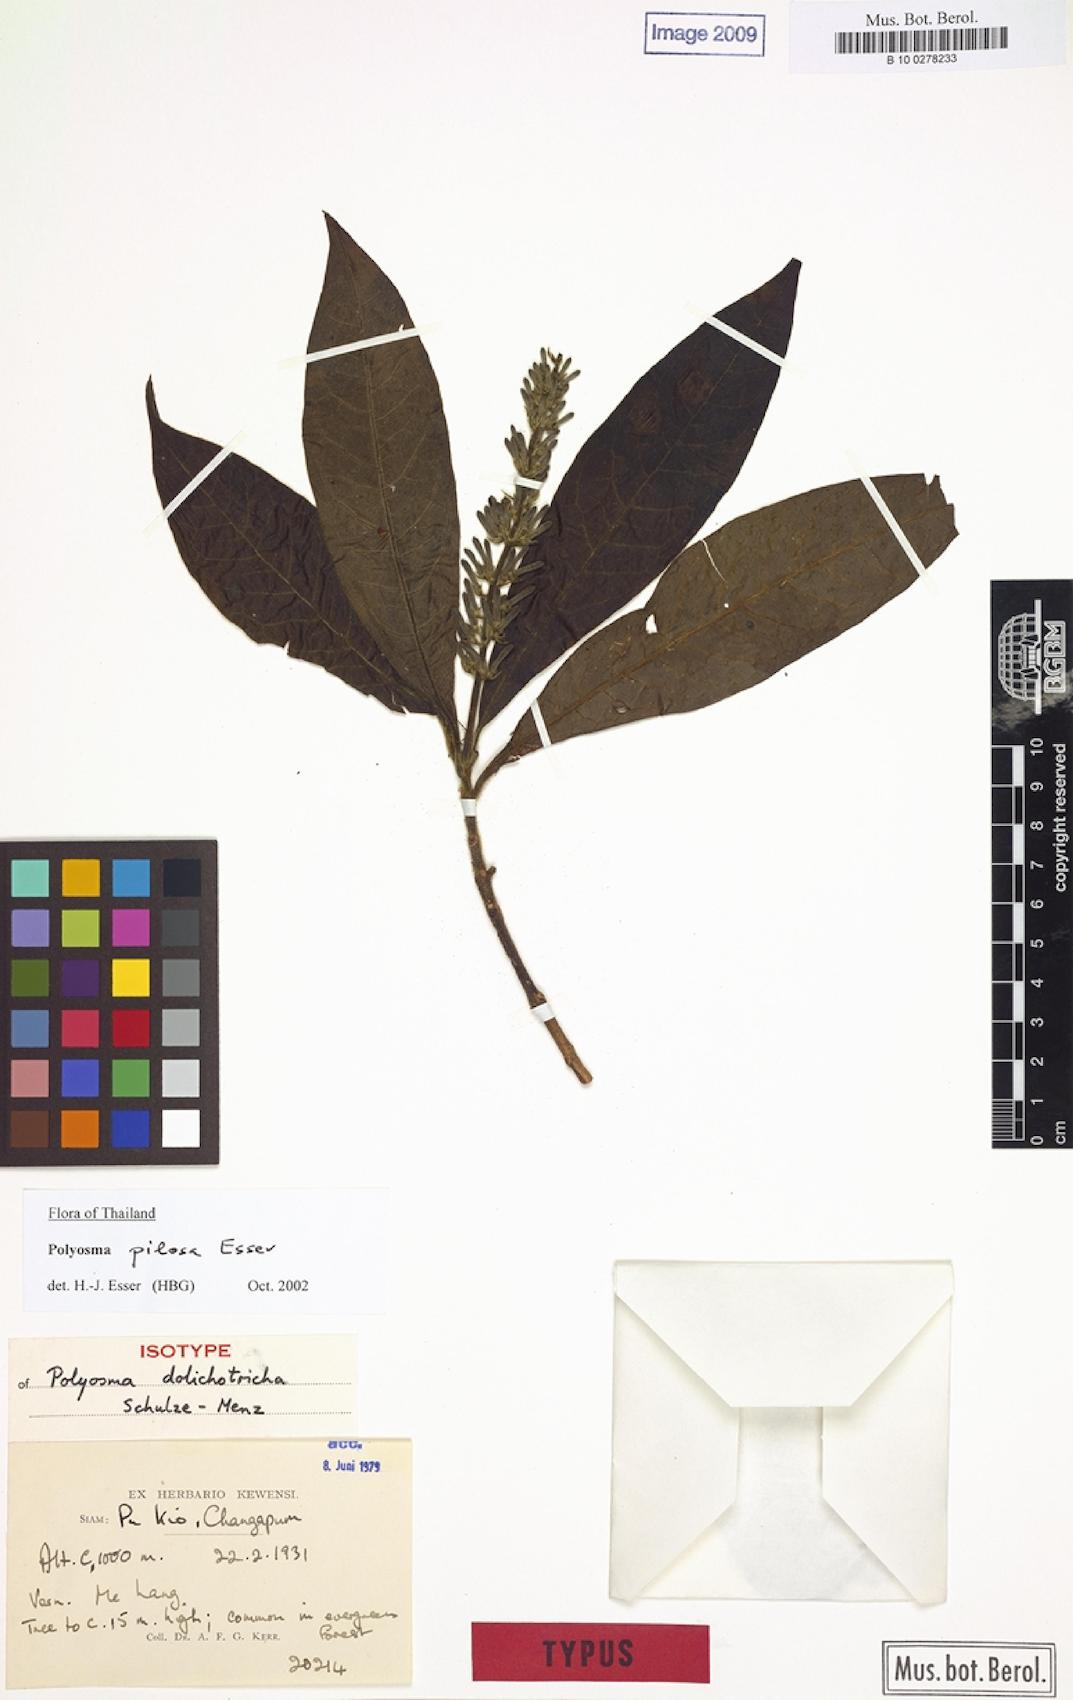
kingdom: Plantae
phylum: Tracheophyta
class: Magnoliopsida
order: Escalloniales
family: Escalloniaceae
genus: Polyosma
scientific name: Polyosma pilosa
